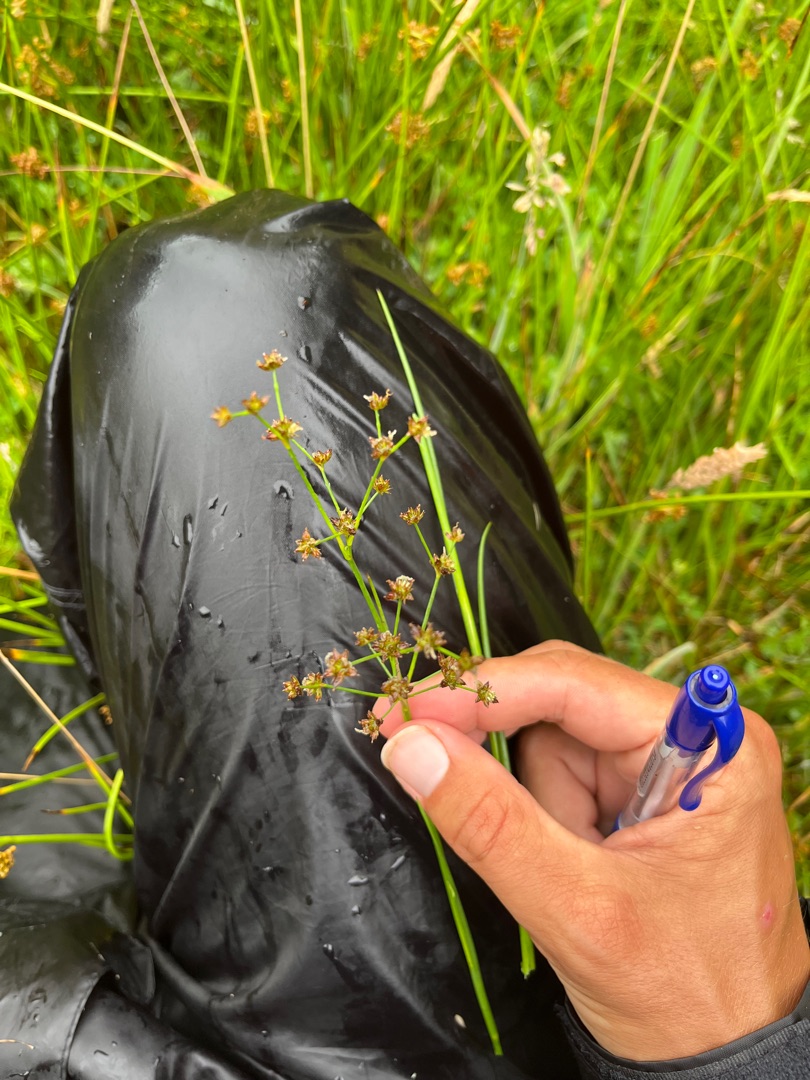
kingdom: Plantae
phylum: Tracheophyta
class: Liliopsida
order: Poales
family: Juncaceae
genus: Juncus
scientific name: Juncus articulatus
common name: Glanskapslet siv
